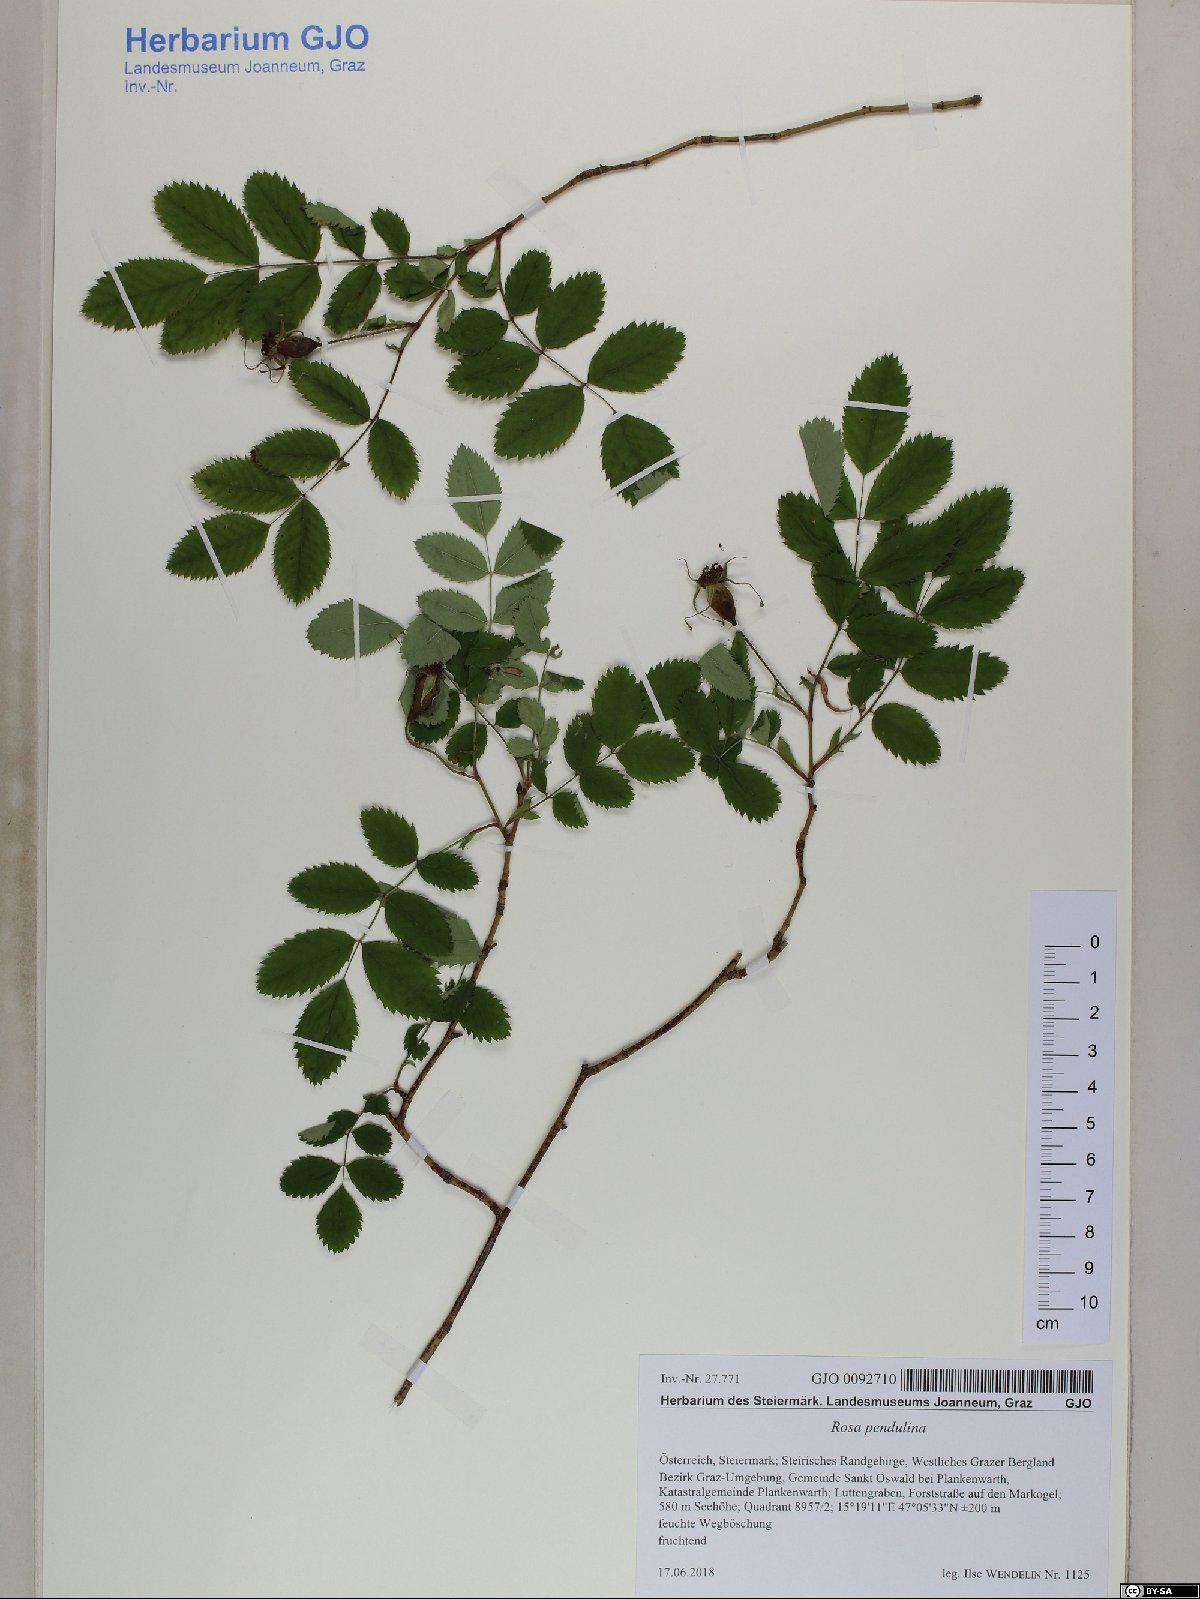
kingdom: Plantae
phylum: Tracheophyta
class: Magnoliopsida
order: Rosales
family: Rosaceae
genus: Rosa
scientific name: Rosa pendulina
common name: Alpine rose
